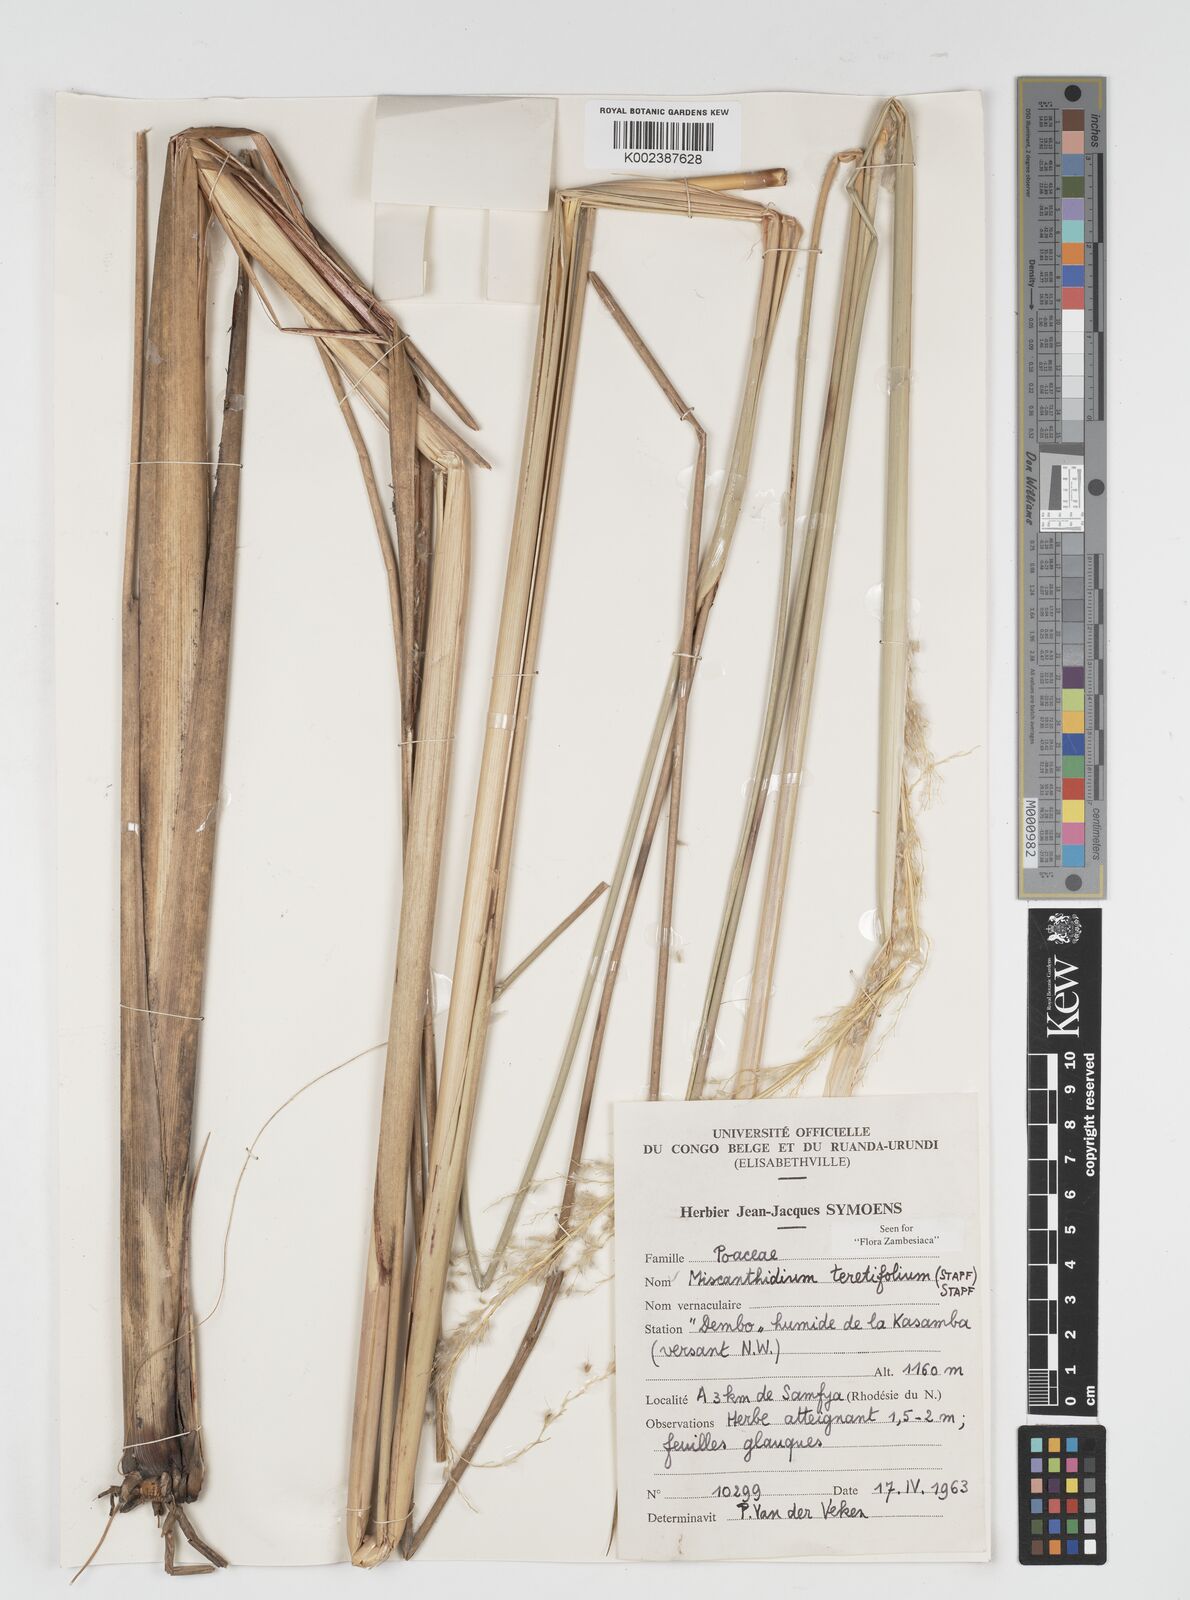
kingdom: Plantae
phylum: Tracheophyta
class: Liliopsida
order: Poales
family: Poaceae
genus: Miscanthidium
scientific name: Miscanthidium junceum
